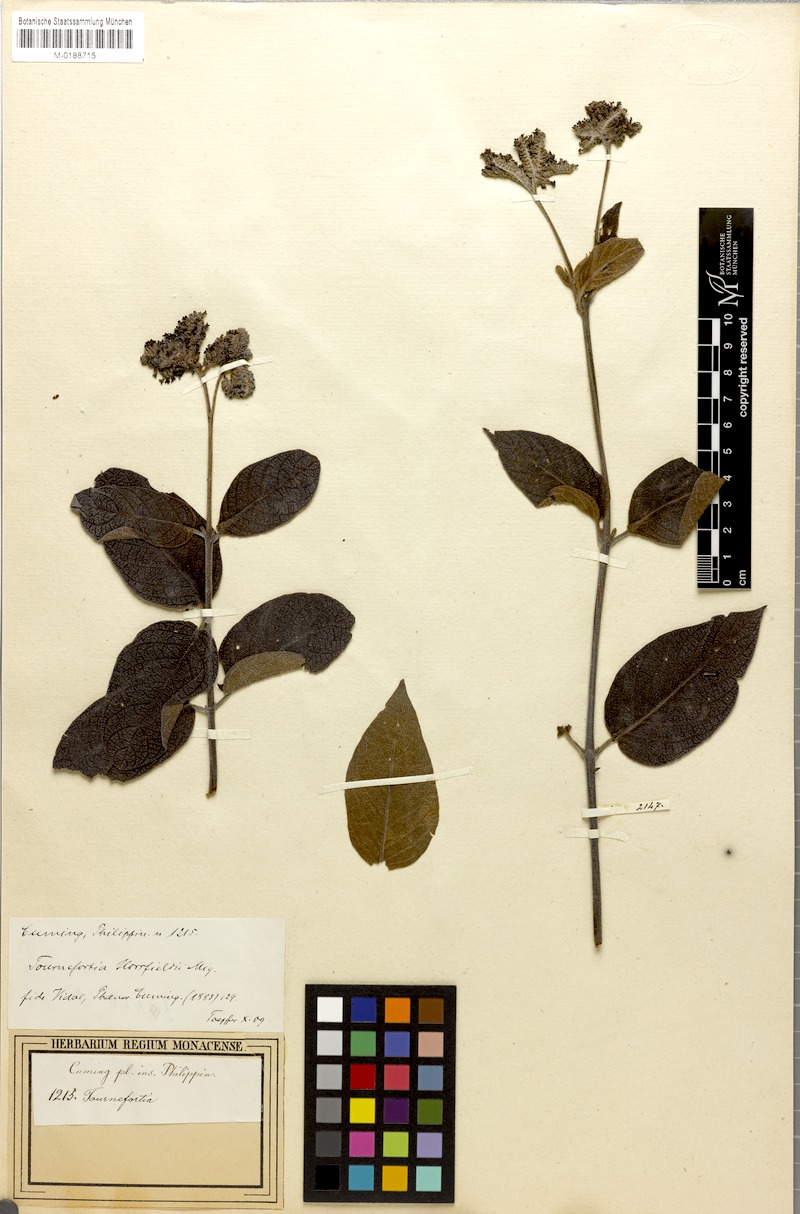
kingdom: Plantae
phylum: Tracheophyta
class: Magnoliopsida
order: Boraginales
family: Heliotropiaceae
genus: Heliotropium
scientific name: Heliotropium luzonicum
